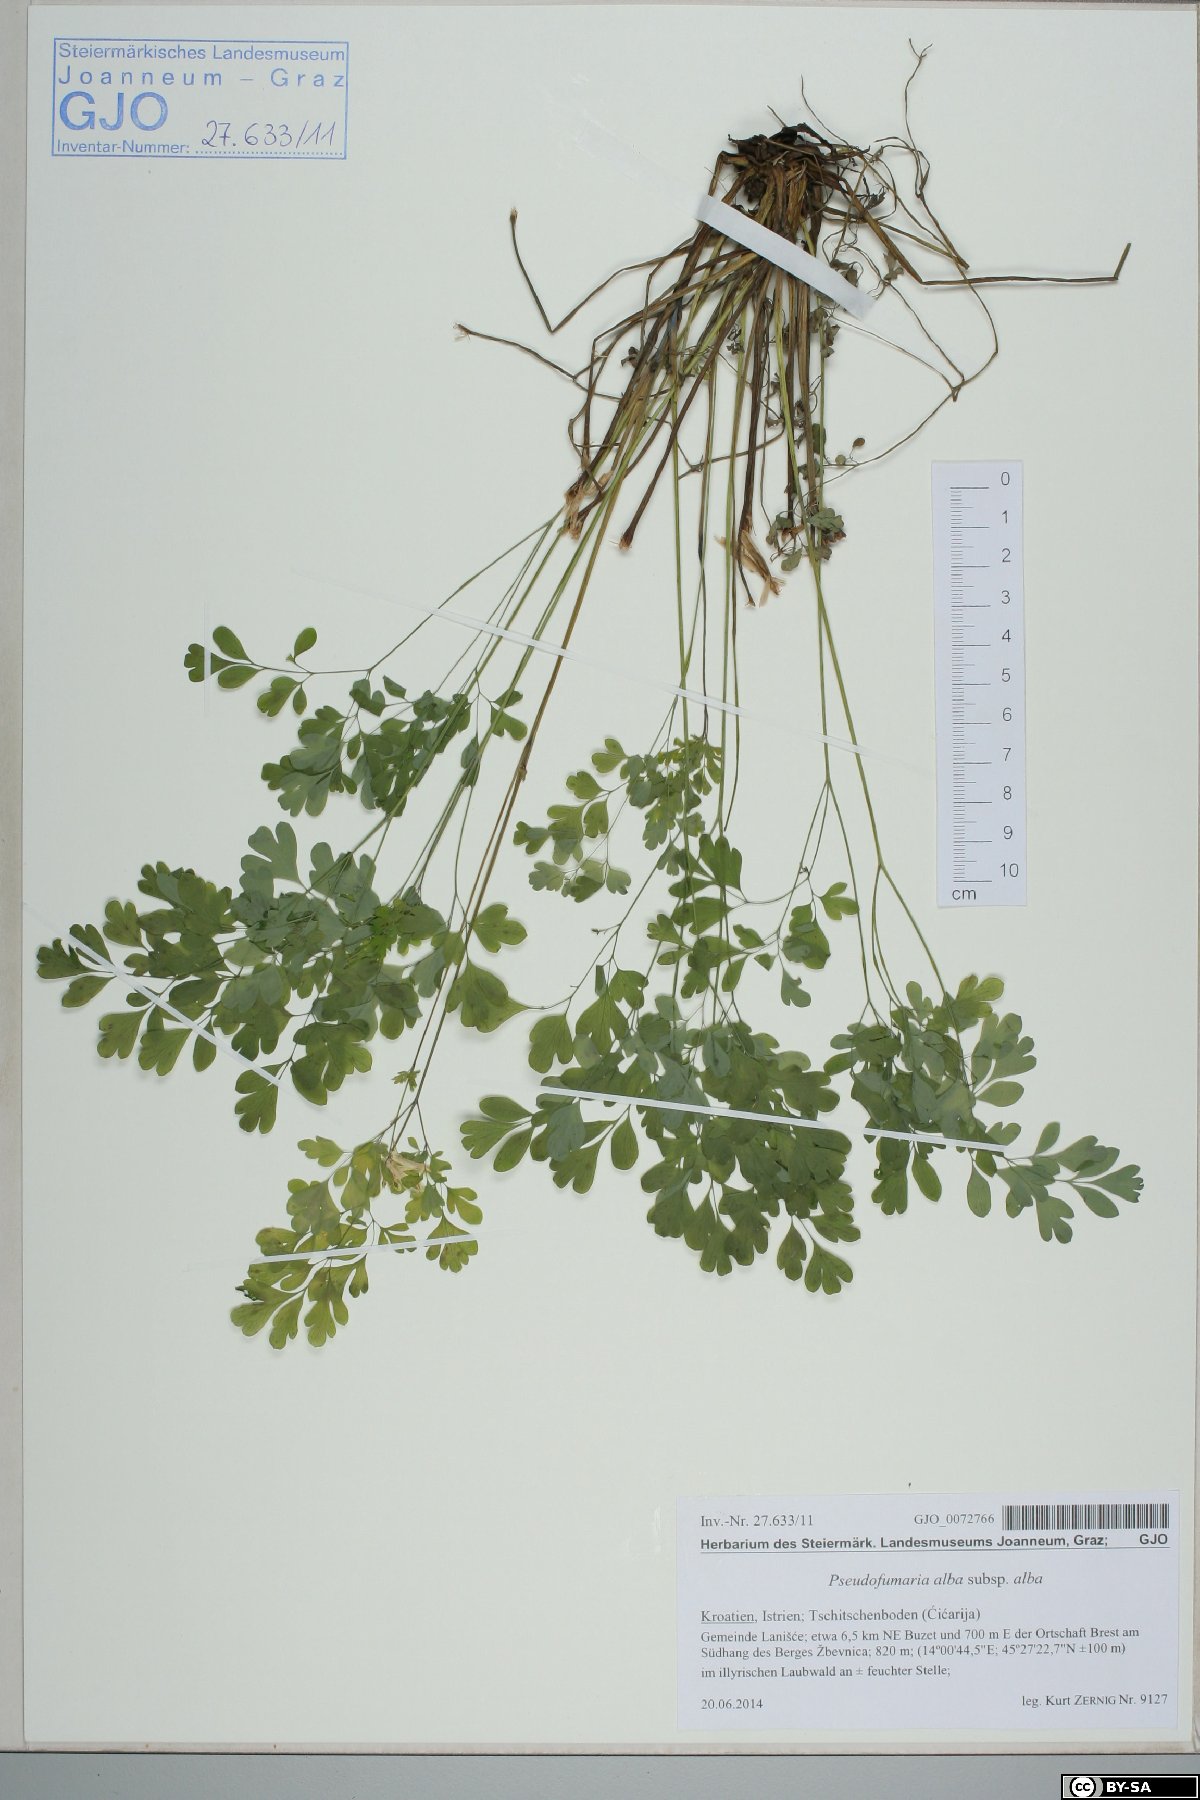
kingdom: Plantae
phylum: Tracheophyta
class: Magnoliopsida
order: Ranunculales
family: Papaveraceae
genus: Pseudofumaria
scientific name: Pseudofumaria alba
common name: Pale corydalis
